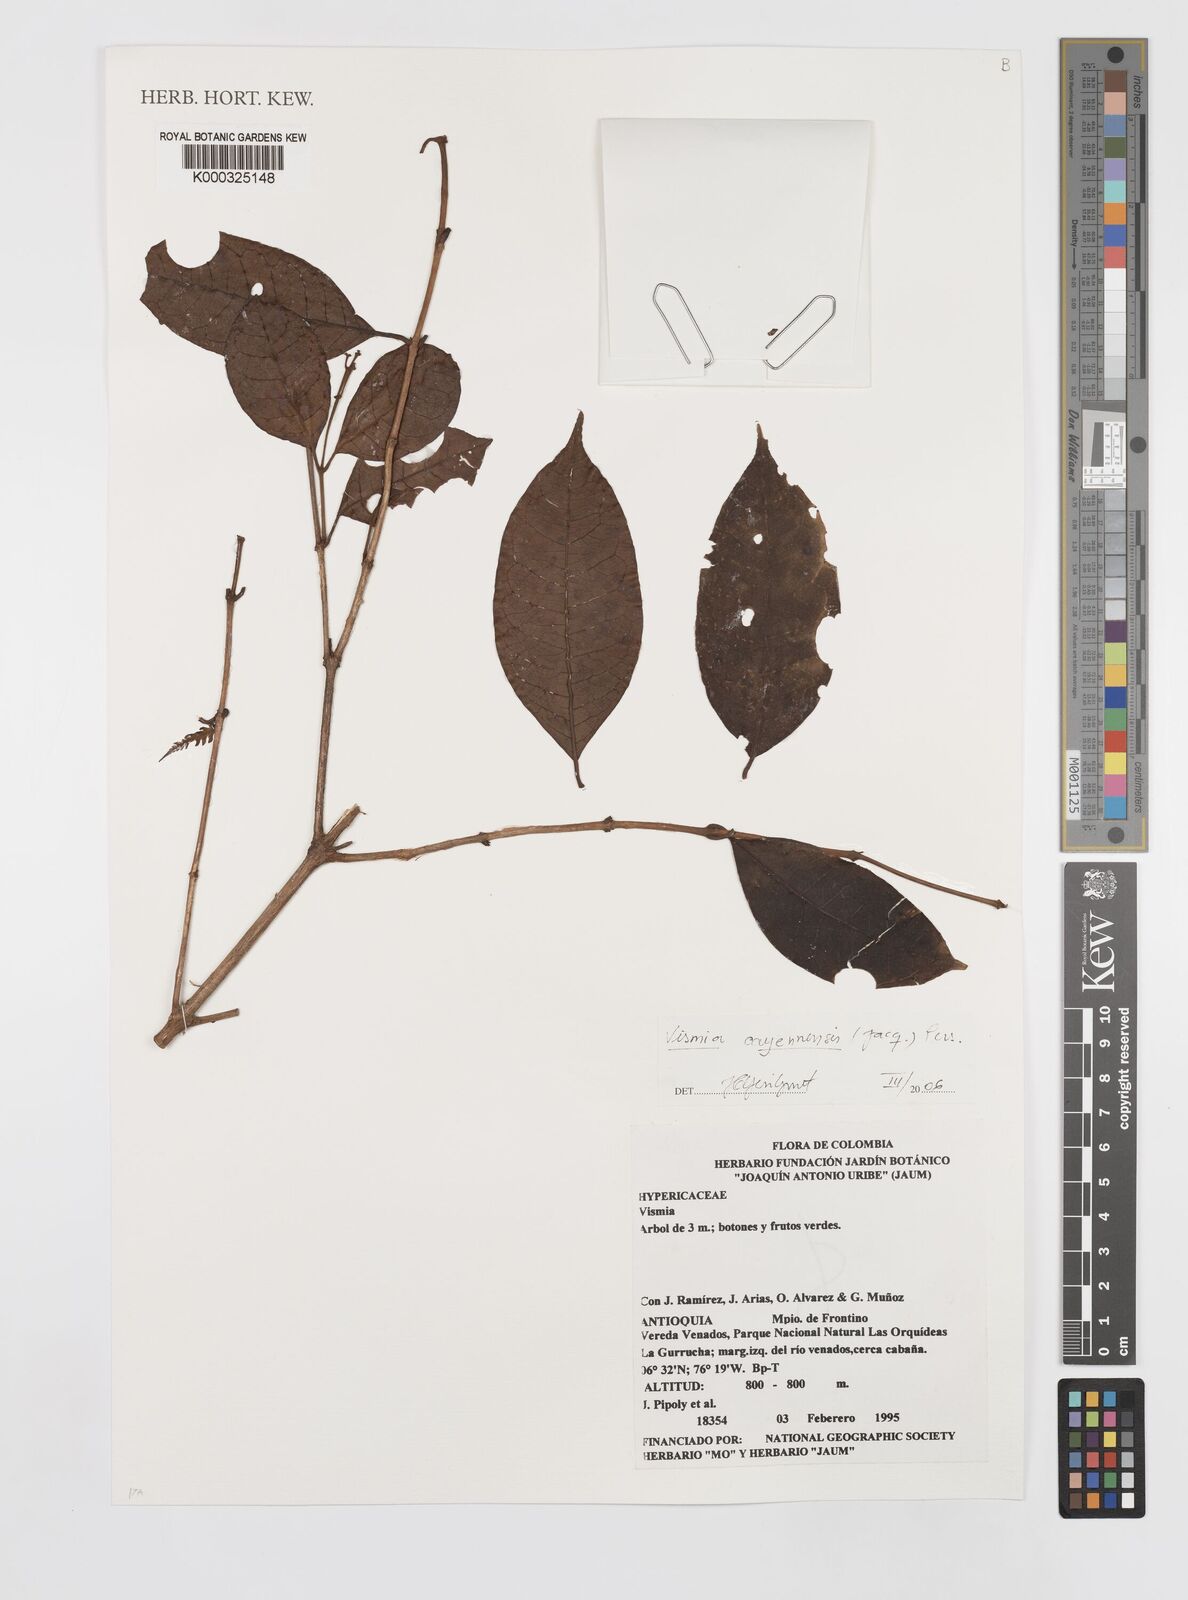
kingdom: Plantae
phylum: Tracheophyta
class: Magnoliopsida
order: Malpighiales
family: Hypericaceae
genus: Vismia
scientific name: Vismia cayennensis
